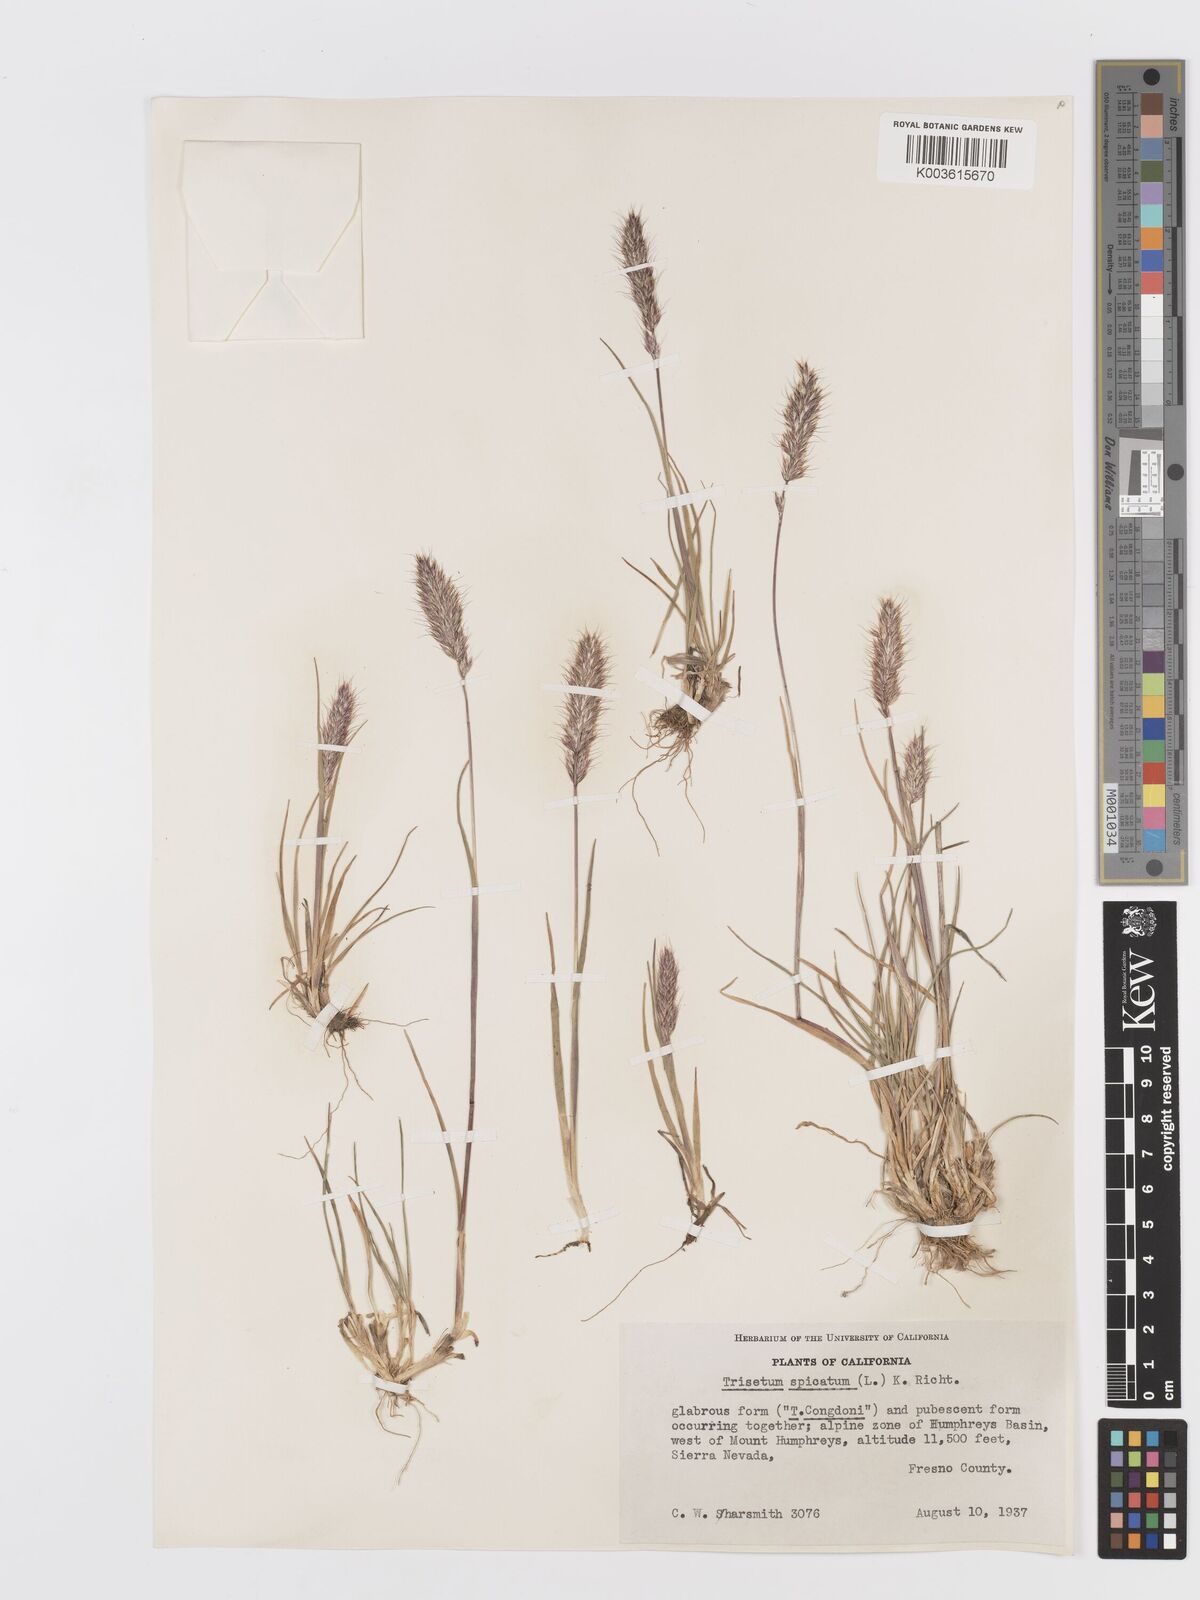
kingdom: Plantae
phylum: Tracheophyta
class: Liliopsida
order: Poales
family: Poaceae
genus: Koeleria
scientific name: Koeleria spicata
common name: Mountain trisetum
